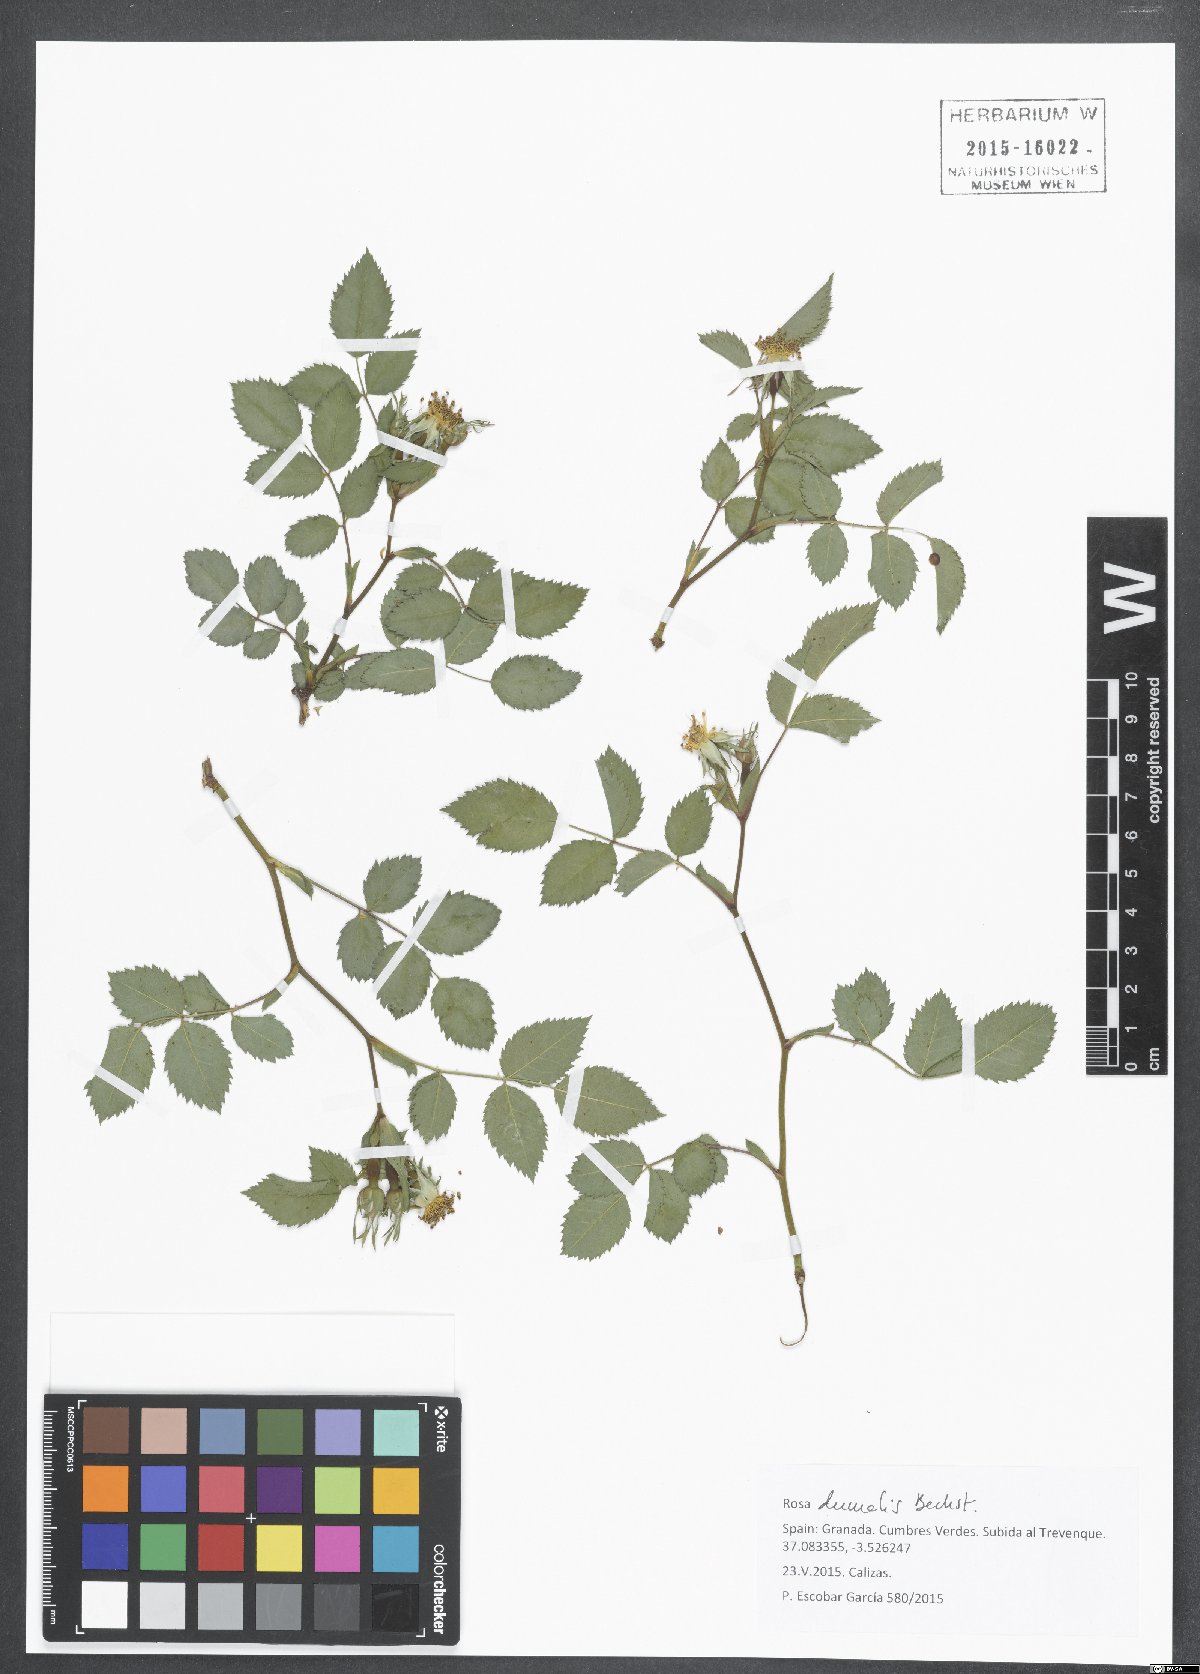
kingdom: Plantae
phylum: Tracheophyta
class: Magnoliopsida
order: Rosales
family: Rosaceae
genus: Rosa
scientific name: Rosa dumalis
